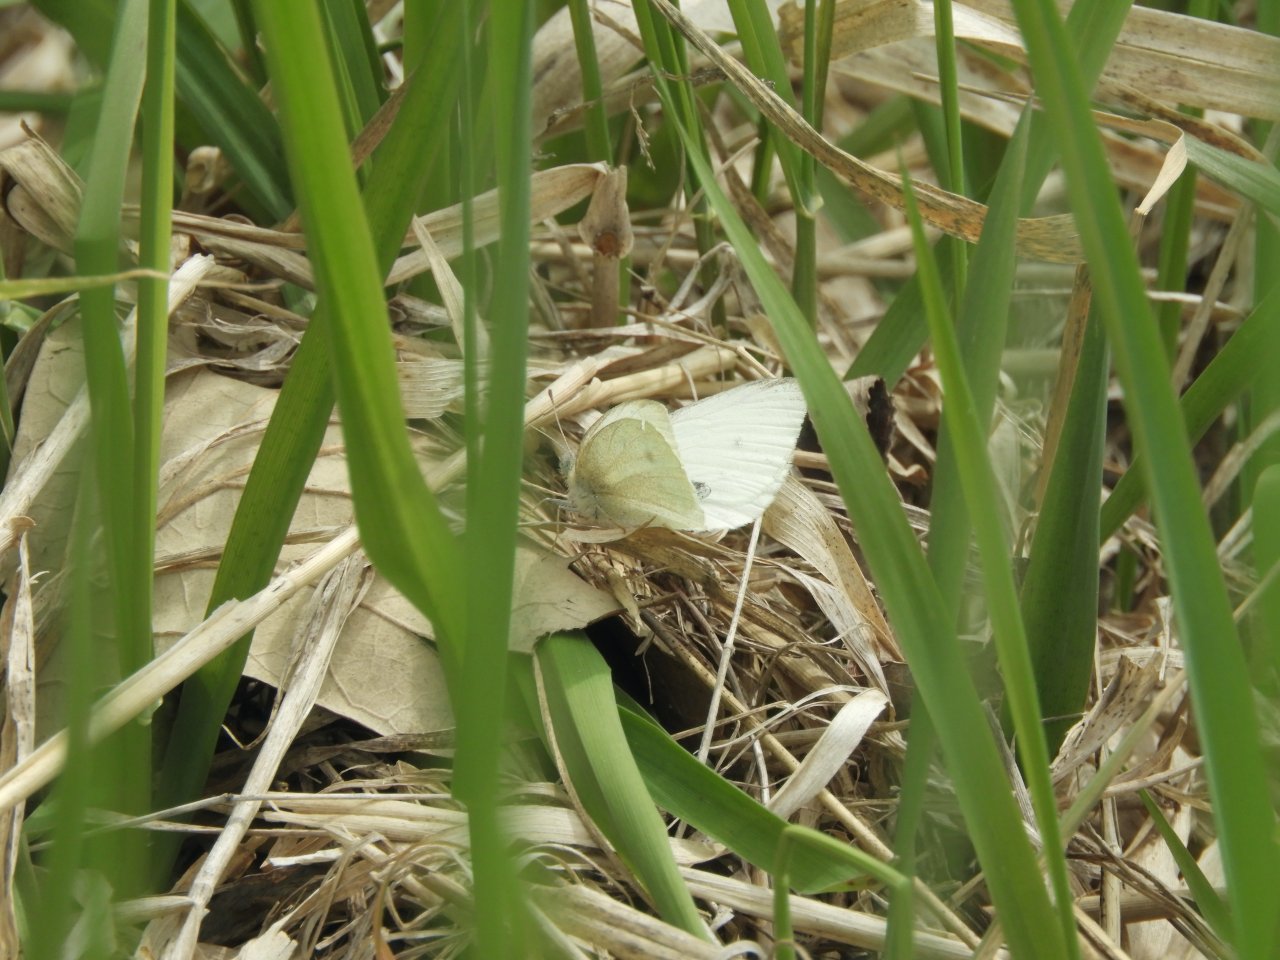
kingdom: Animalia
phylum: Arthropoda
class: Insecta
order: Lepidoptera
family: Pieridae
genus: Pieris
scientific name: Pieris rapae
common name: Cabbage White
